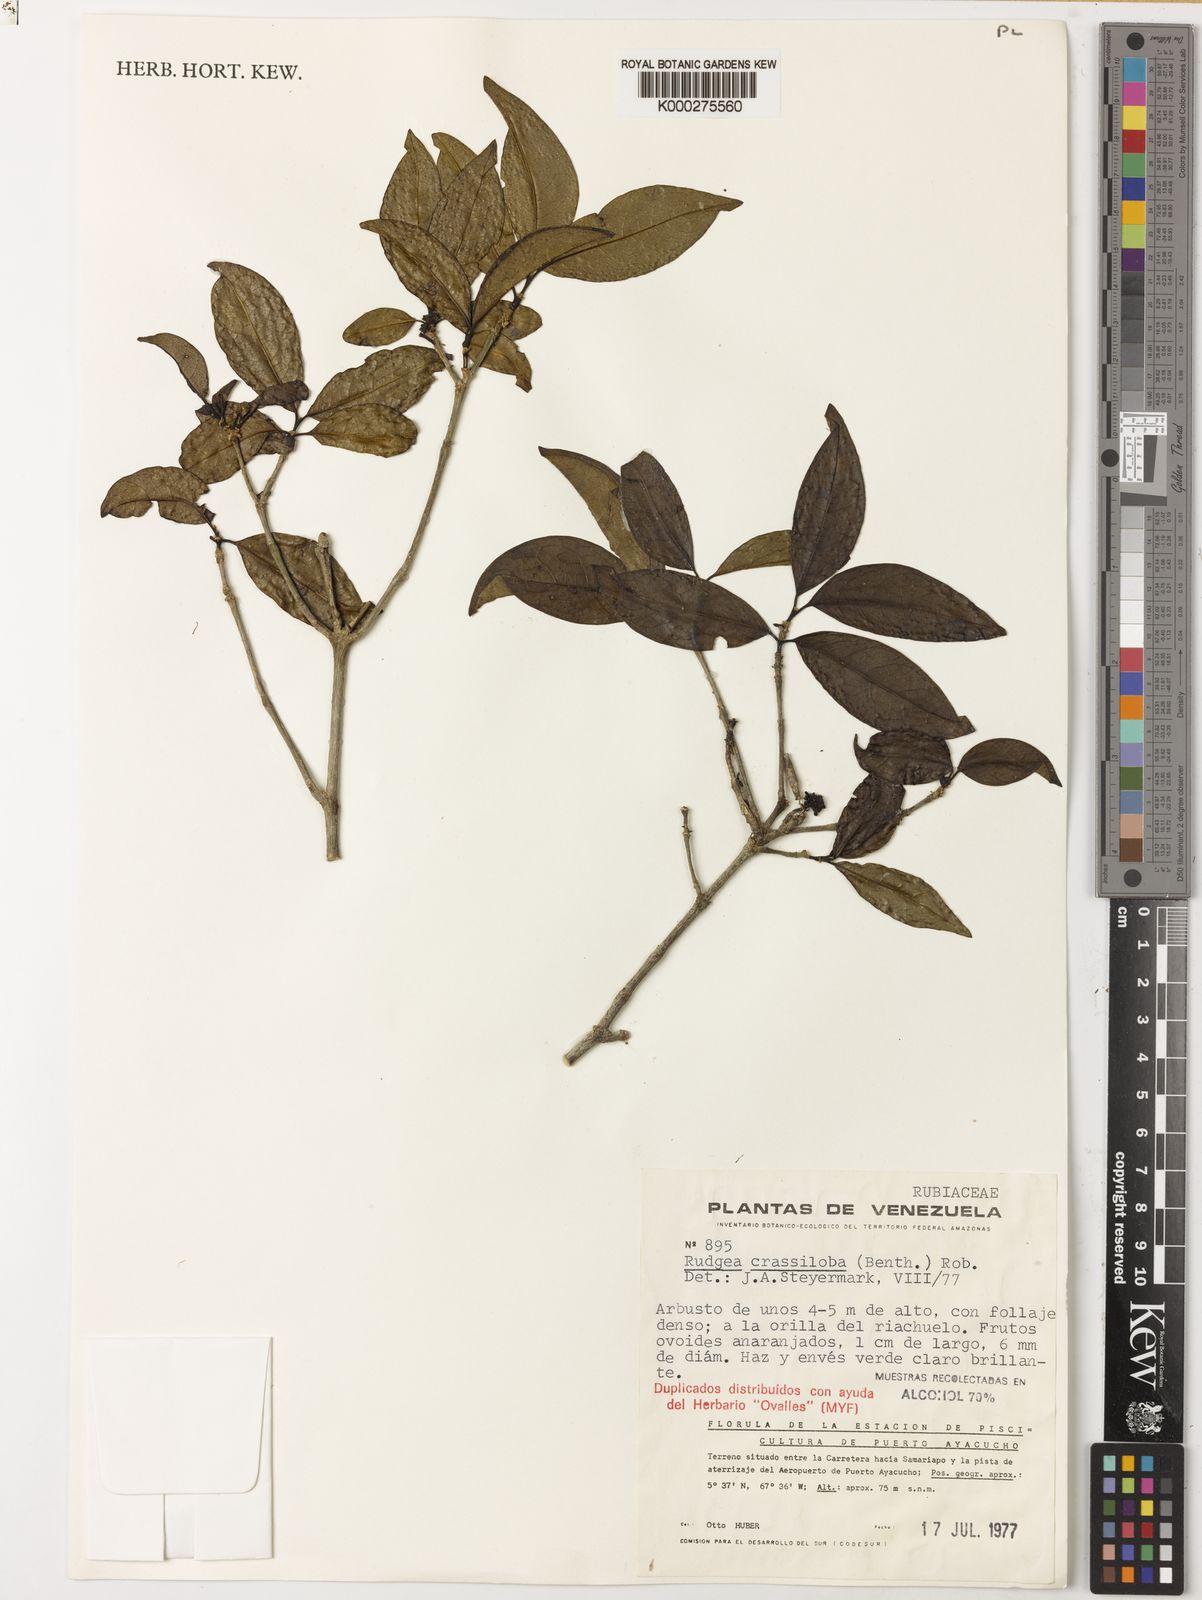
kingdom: Plantae
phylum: Tracheophyta
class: Magnoliopsida
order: Gentianales
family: Rubiaceae
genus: Rudgea
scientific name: Rudgea crassiloba
